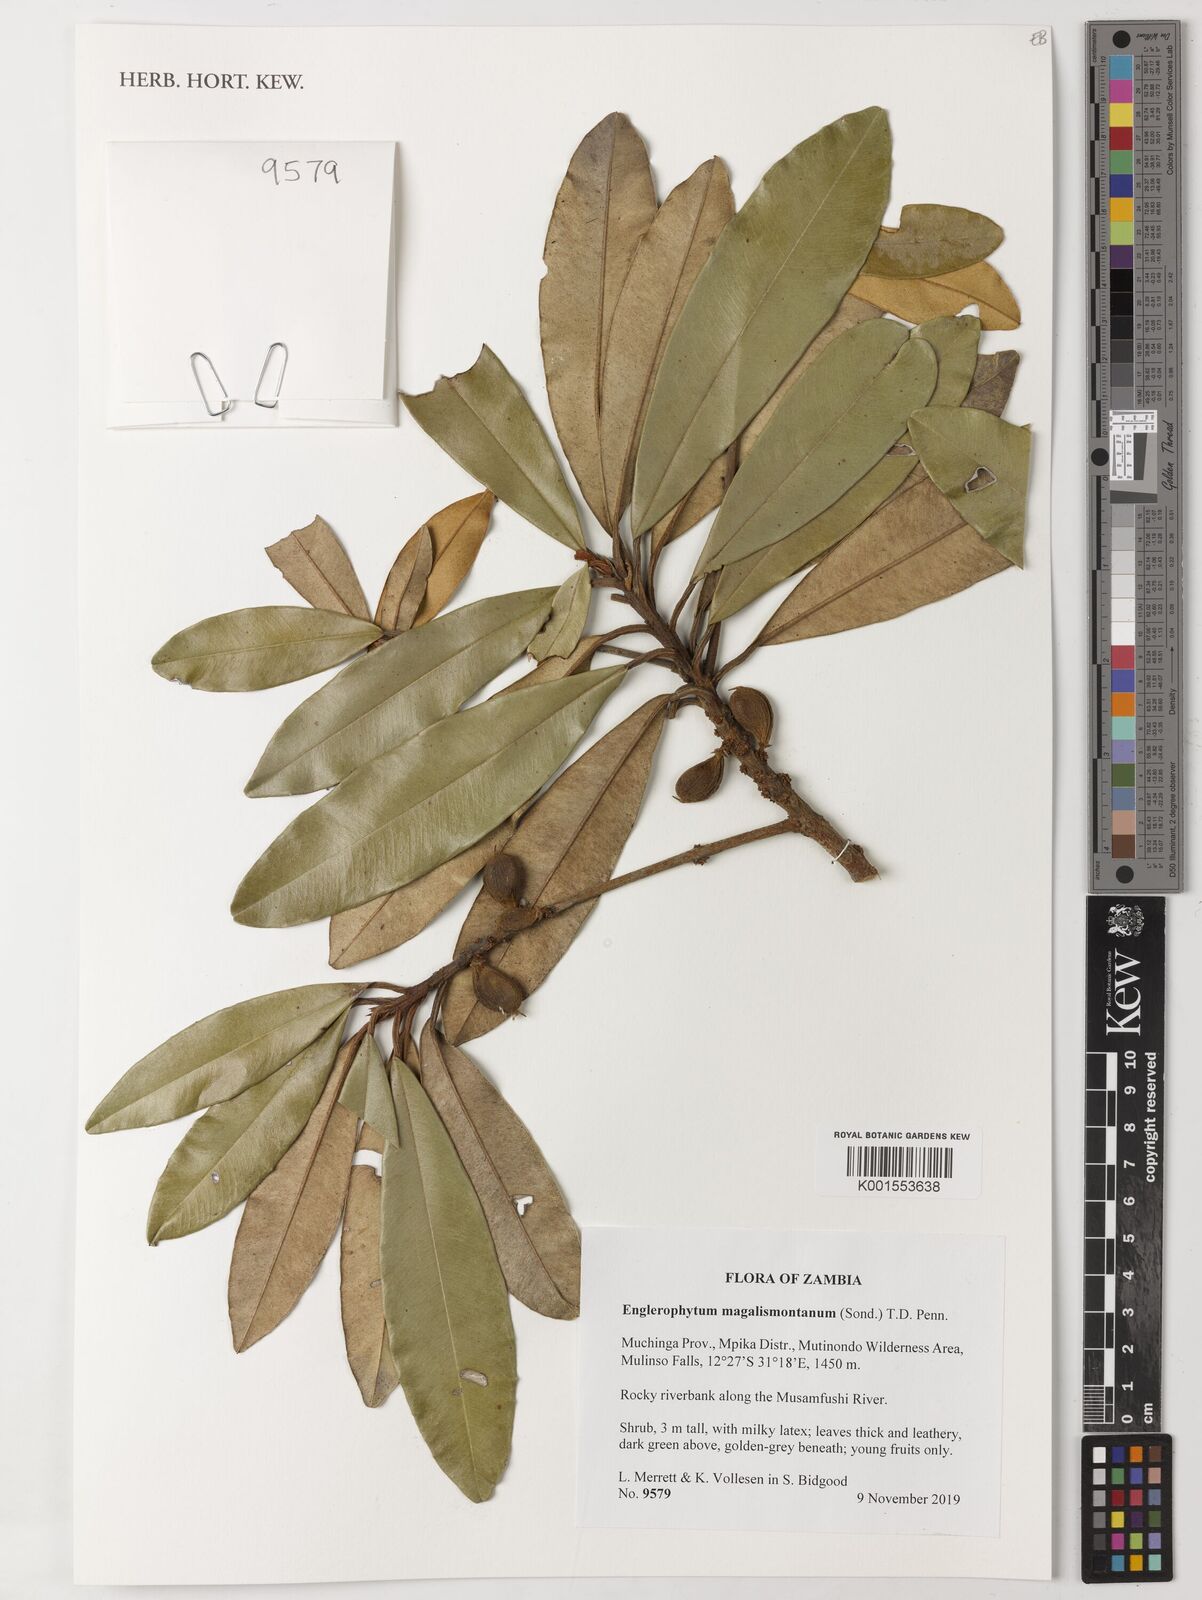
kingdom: Plantae
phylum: Tracheophyta
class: Magnoliopsida
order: Ericales
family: Sapotaceae
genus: Englerophytum
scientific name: Englerophytum magalismontanum
